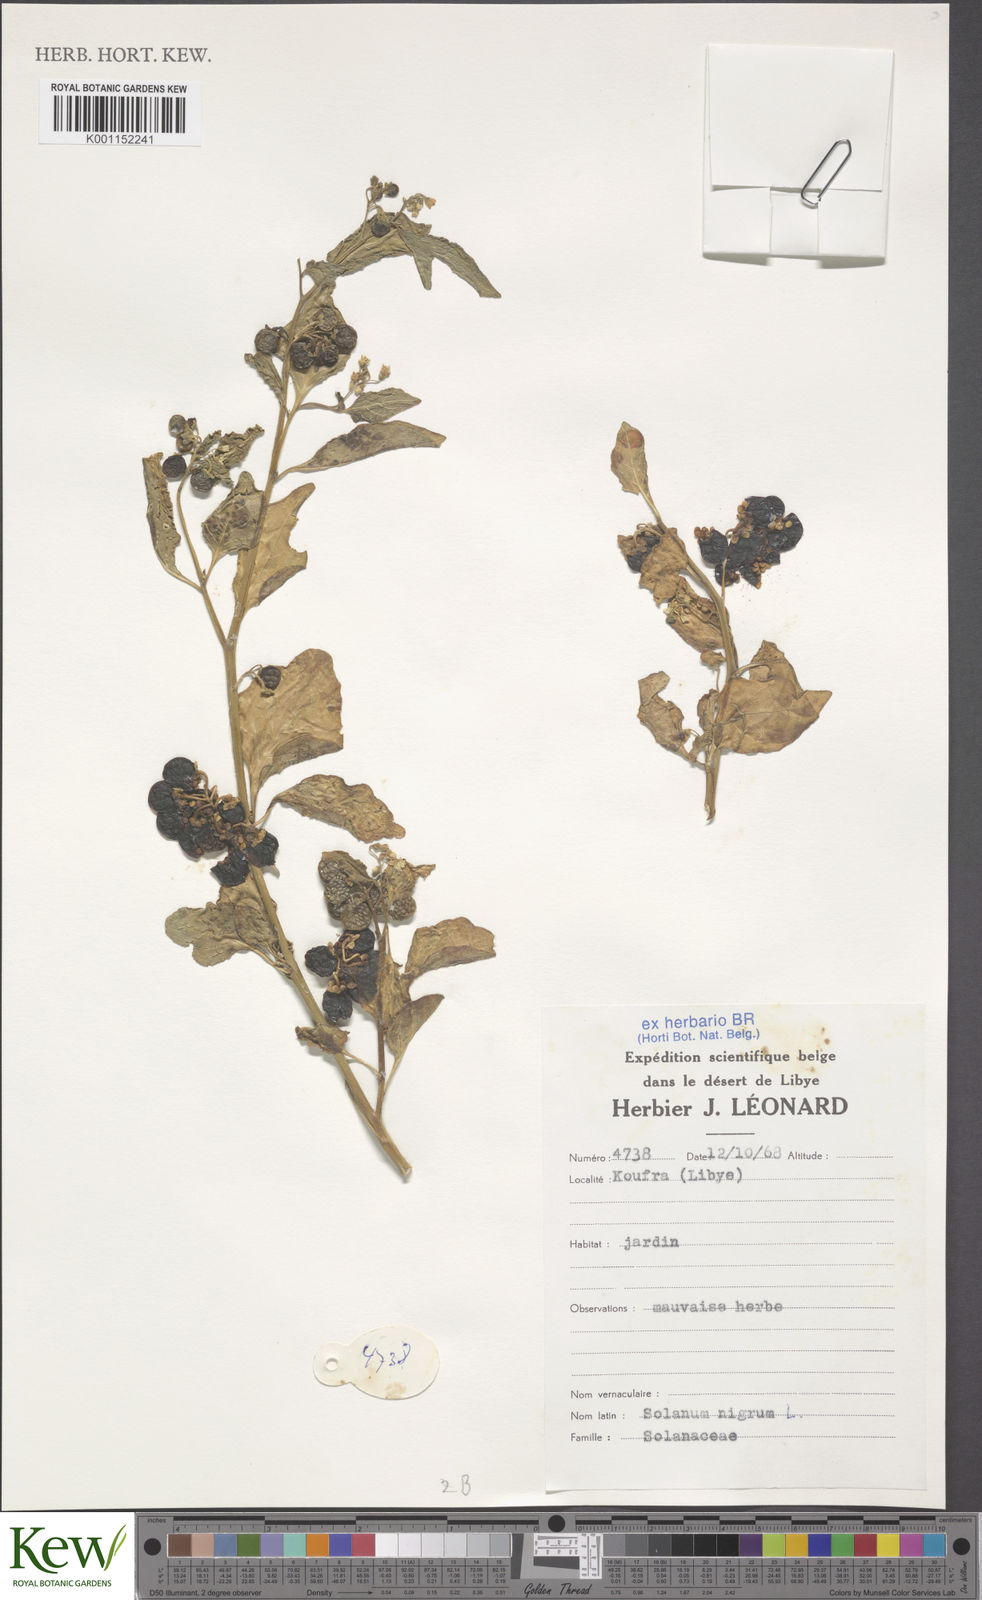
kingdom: Plantae
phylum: Tracheophyta
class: Magnoliopsida
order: Solanales
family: Solanaceae
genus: Solanum
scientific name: Solanum nigrum
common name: Black nightshade
